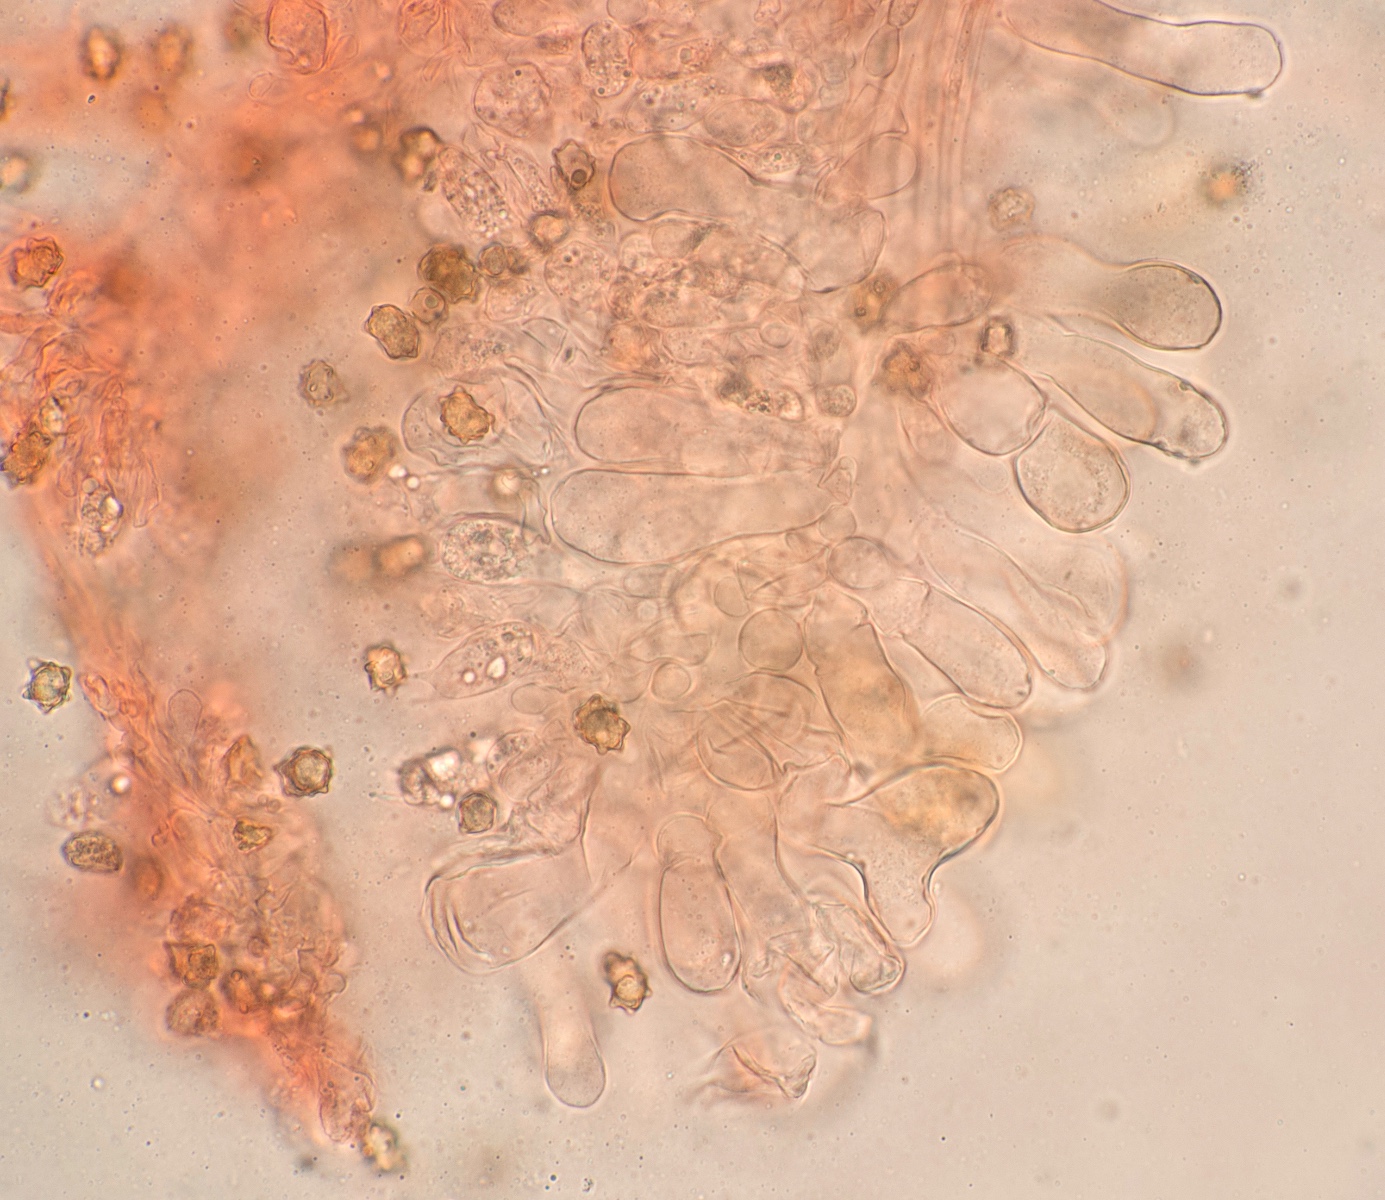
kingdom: Fungi
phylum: Basidiomycota
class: Agaricomycetes
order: Agaricales
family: Inocybaceae
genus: Inocybe
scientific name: Inocybe leptophylla
